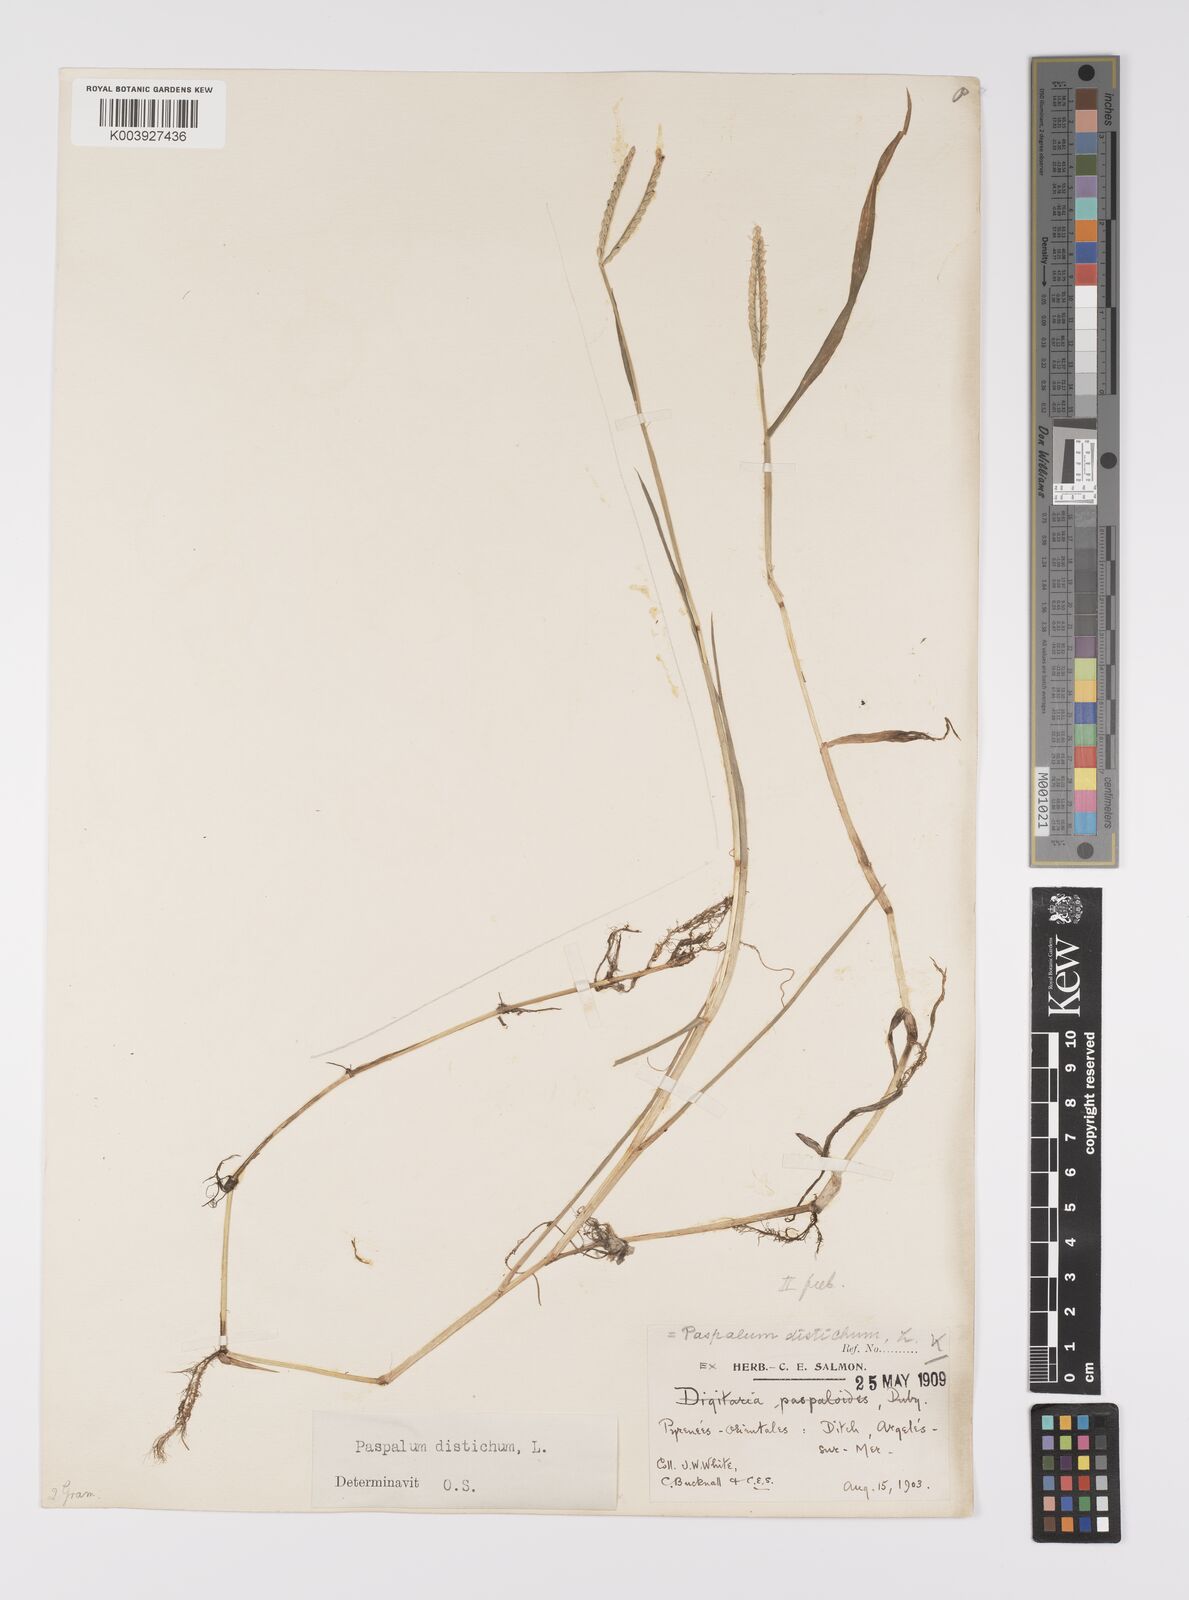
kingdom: Plantae
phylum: Tracheophyta
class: Liliopsida
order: Poales
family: Poaceae
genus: Paspalum
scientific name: Paspalum distichum
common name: Knotgrass
